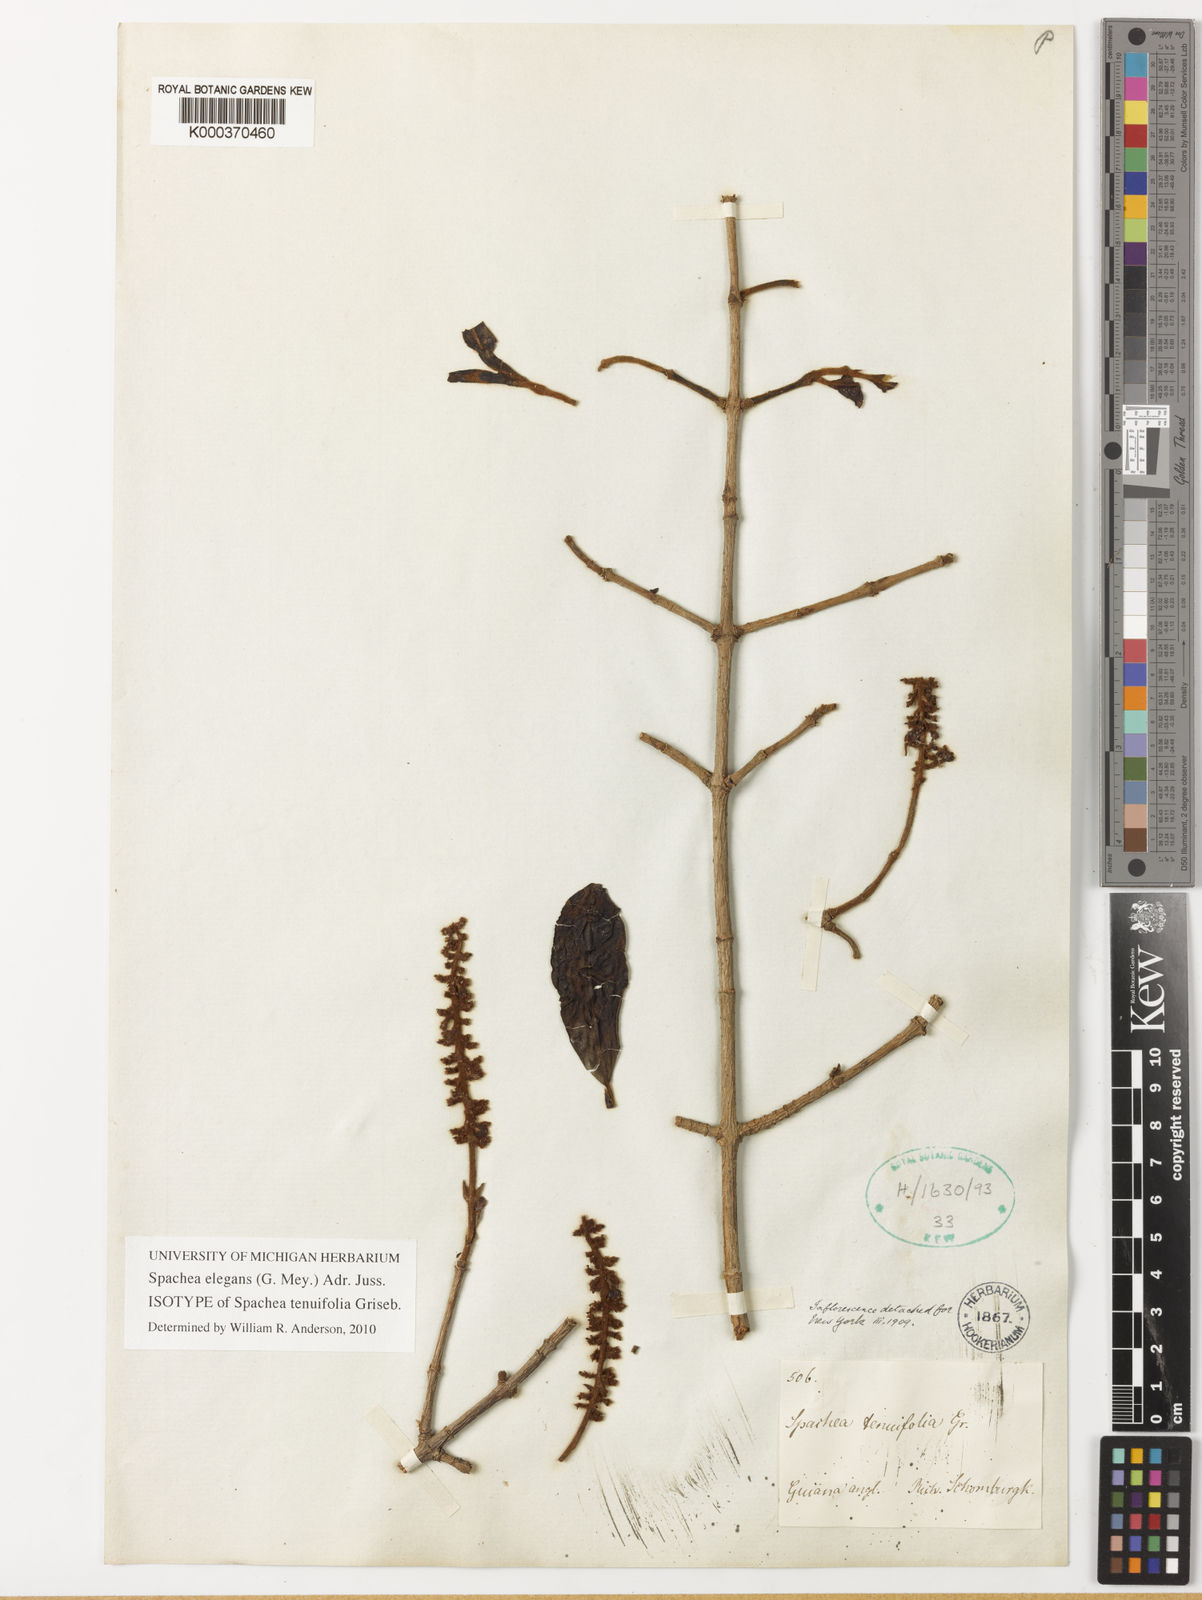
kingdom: Plantae
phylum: Tracheophyta
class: Magnoliopsida
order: Malpighiales
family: Malpighiaceae
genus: Spachea
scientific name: Spachea elegans
